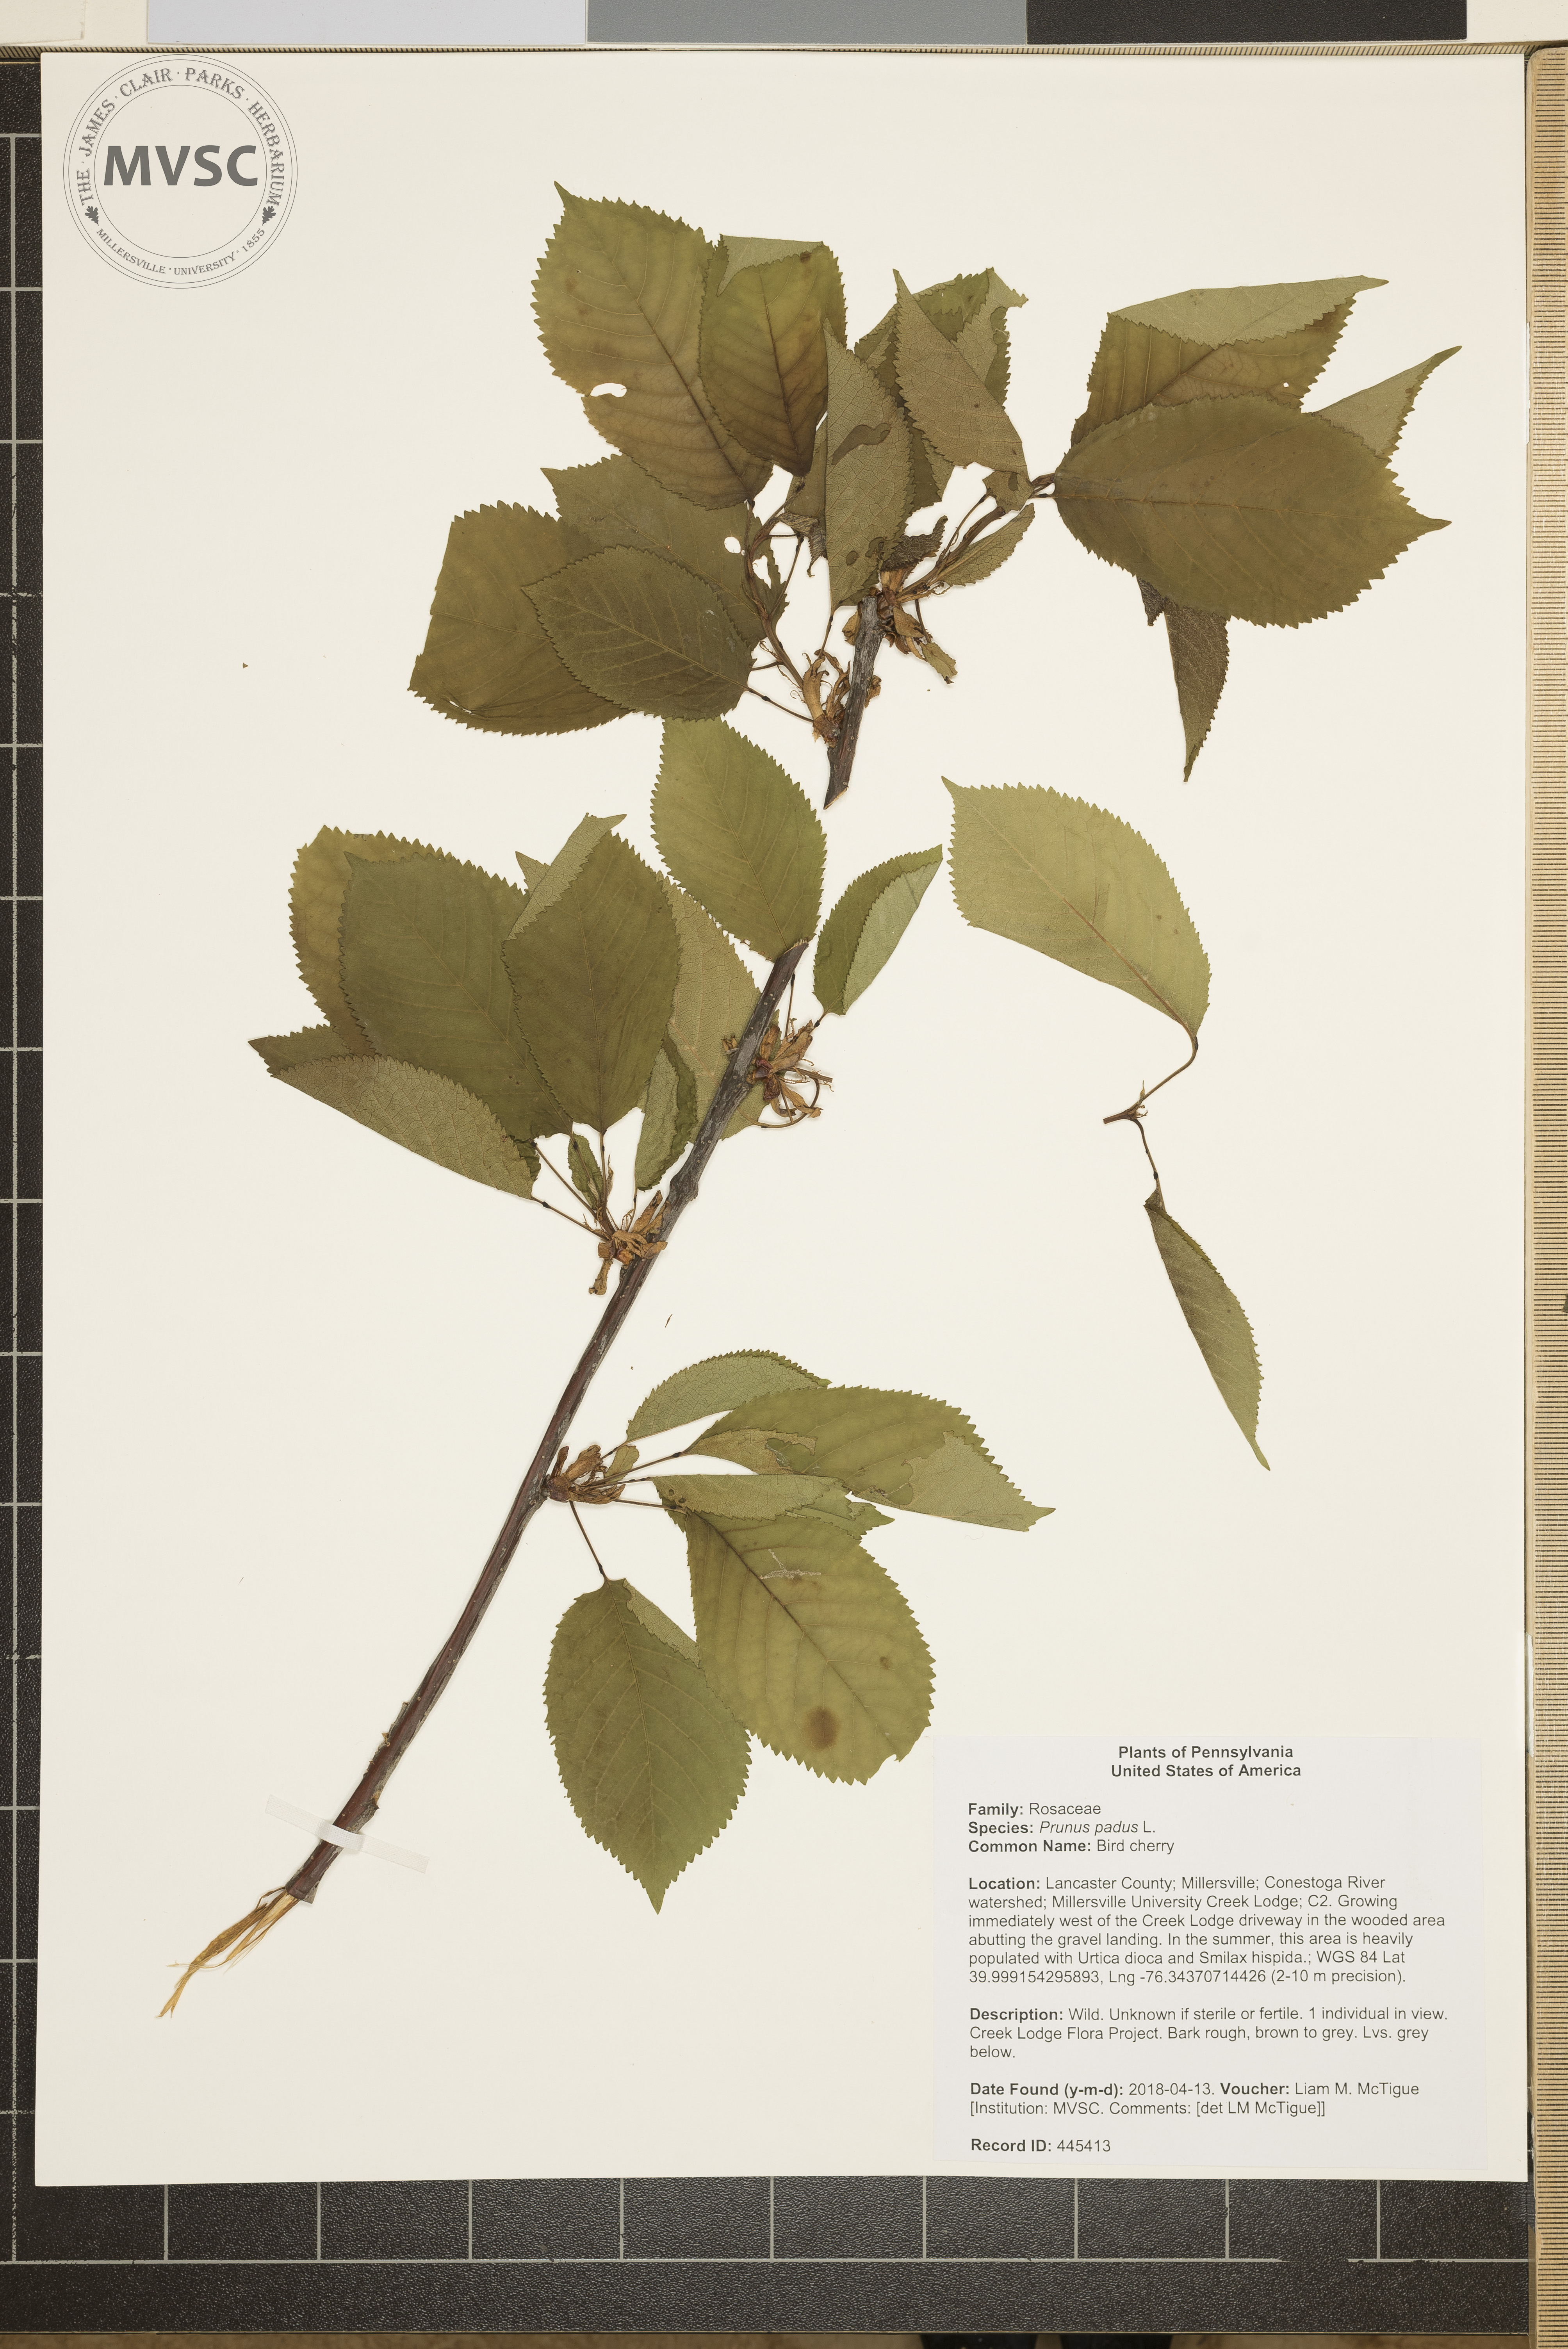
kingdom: Plantae
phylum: Tracheophyta
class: Magnoliopsida
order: Rosales
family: Rosaceae
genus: Prunus
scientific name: Prunus padus
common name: Bird cherry
